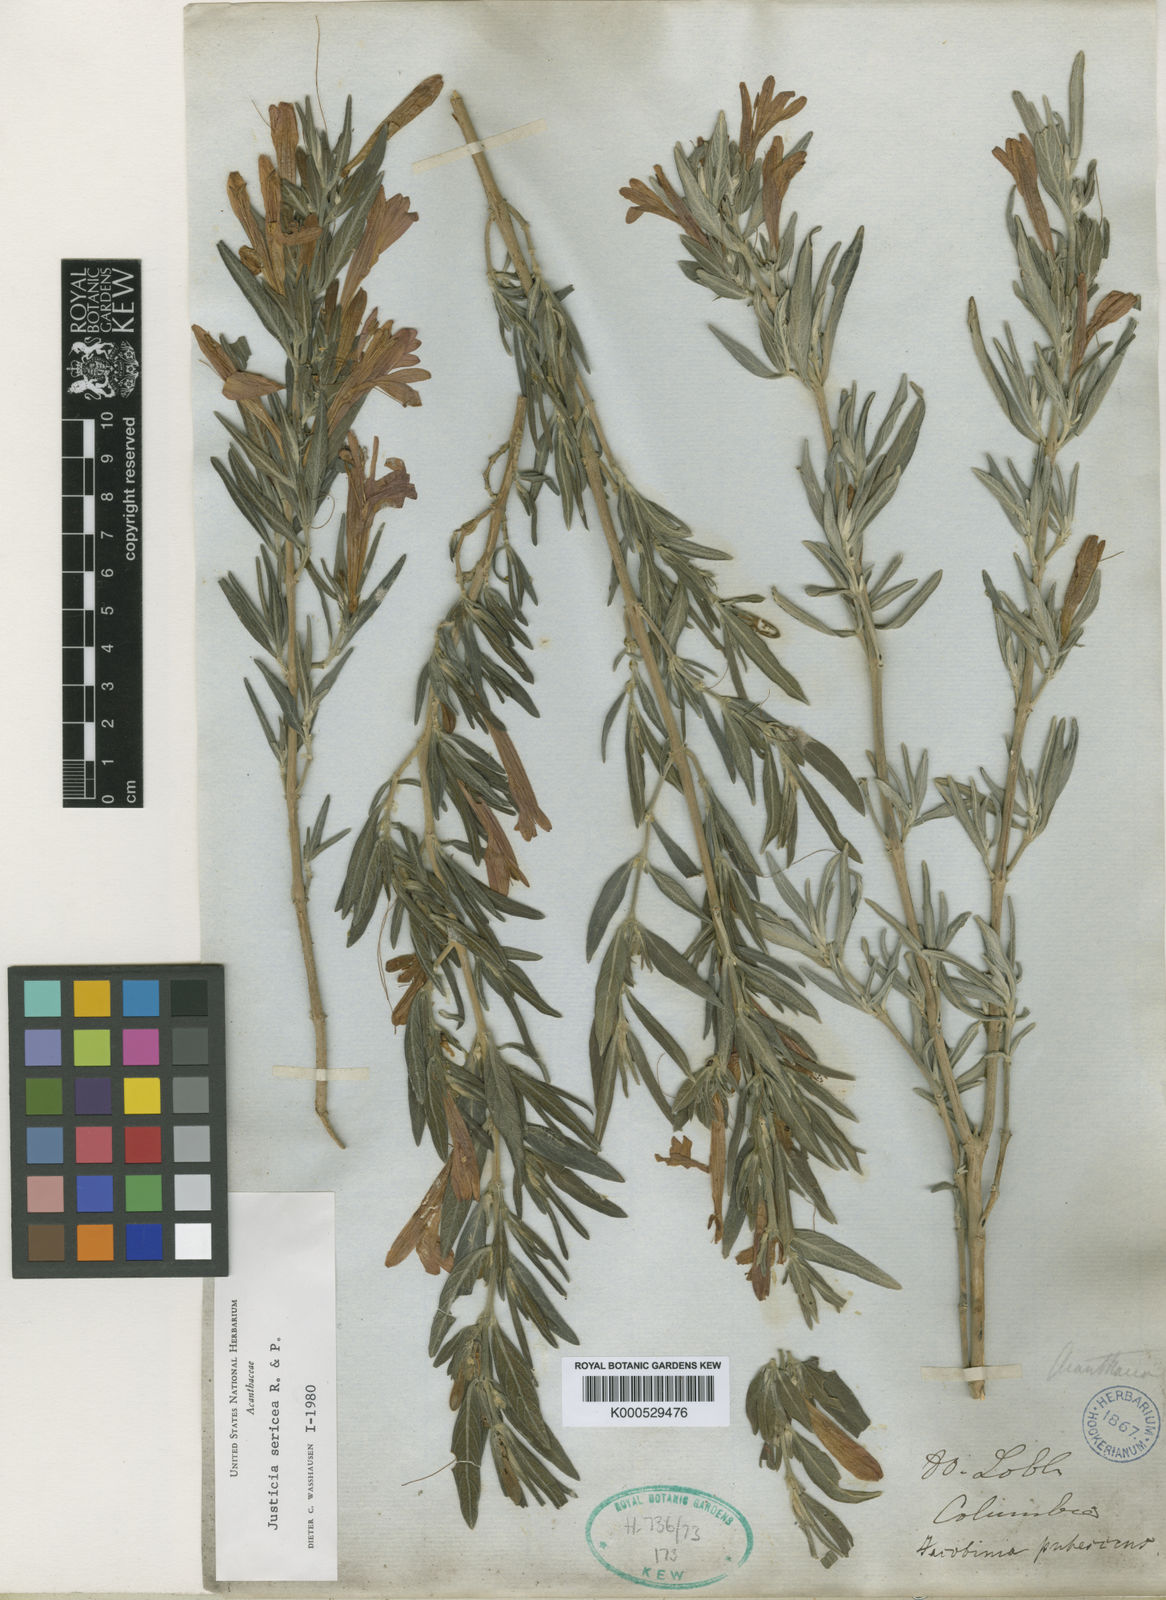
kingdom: Plantae
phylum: Tracheophyta
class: Magnoliopsida
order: Lamiales
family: Acanthaceae
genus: Justicia
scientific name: Justicia sericea
